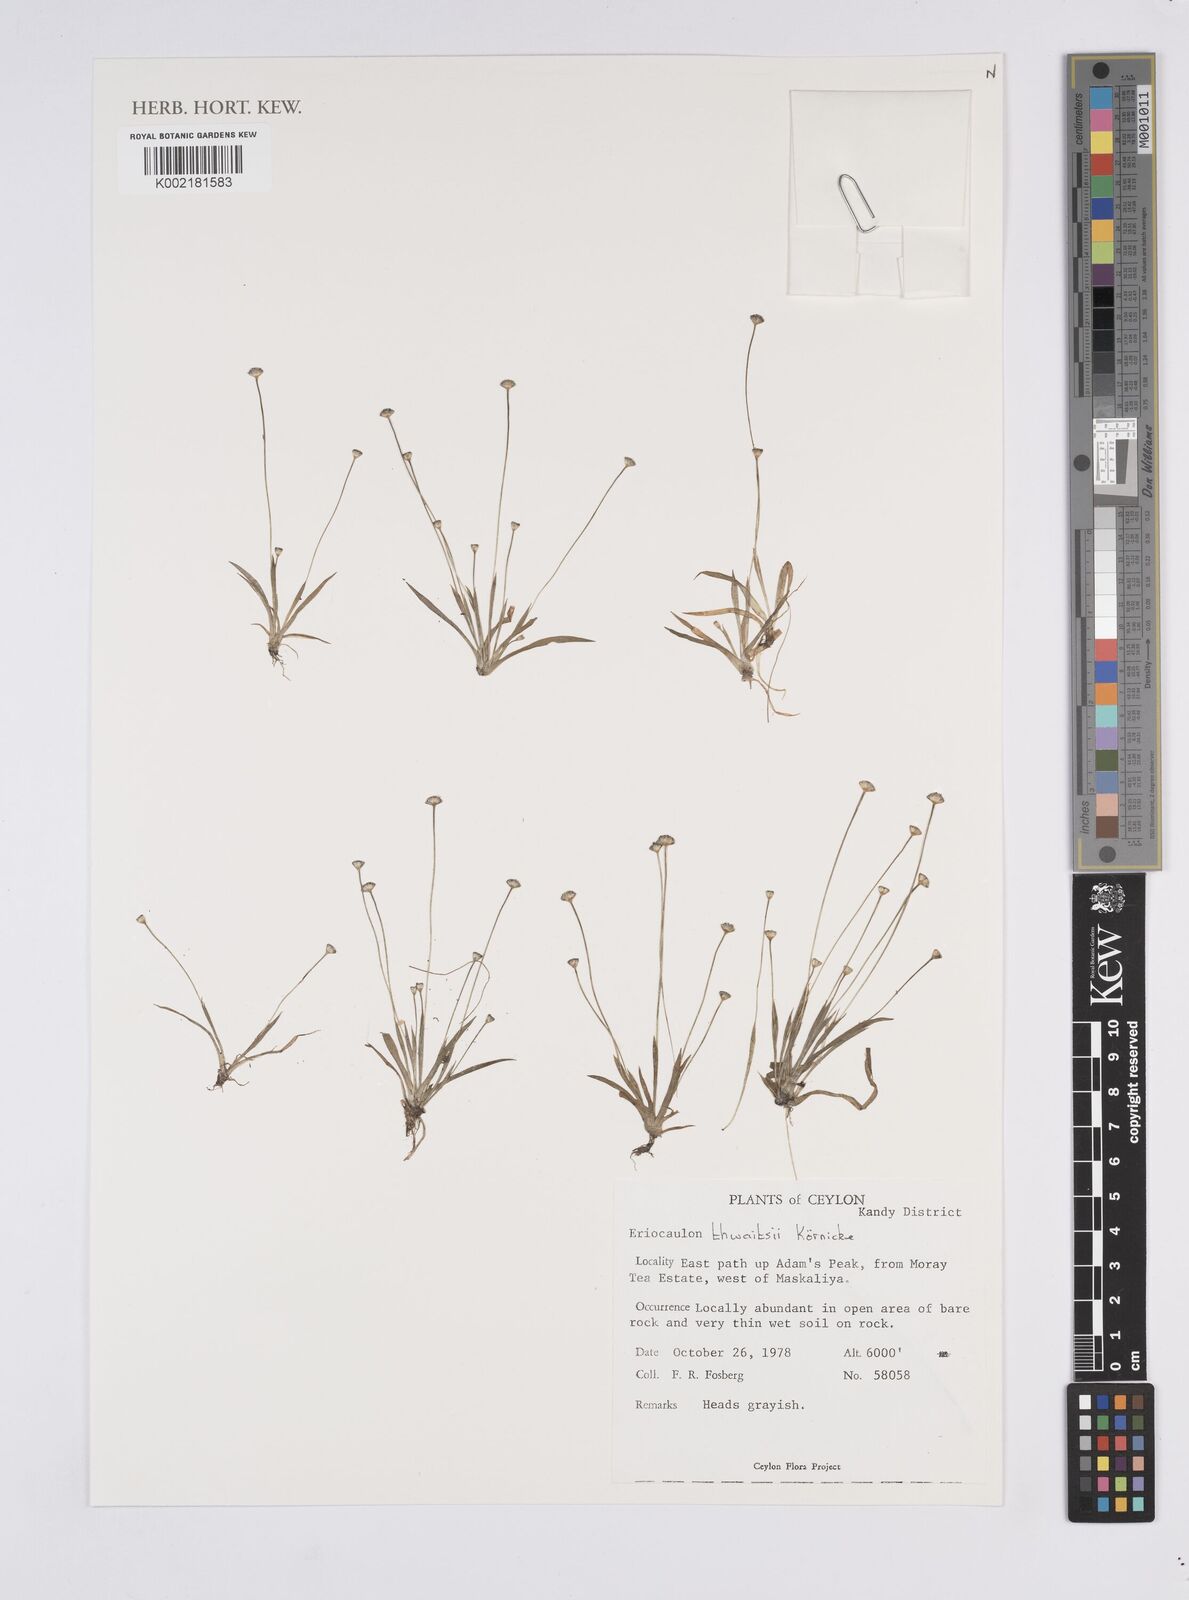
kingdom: Plantae
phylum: Tracheophyta
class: Liliopsida
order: Poales
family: Eriocaulaceae
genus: Eriocaulon
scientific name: Eriocaulon thwaitesii
